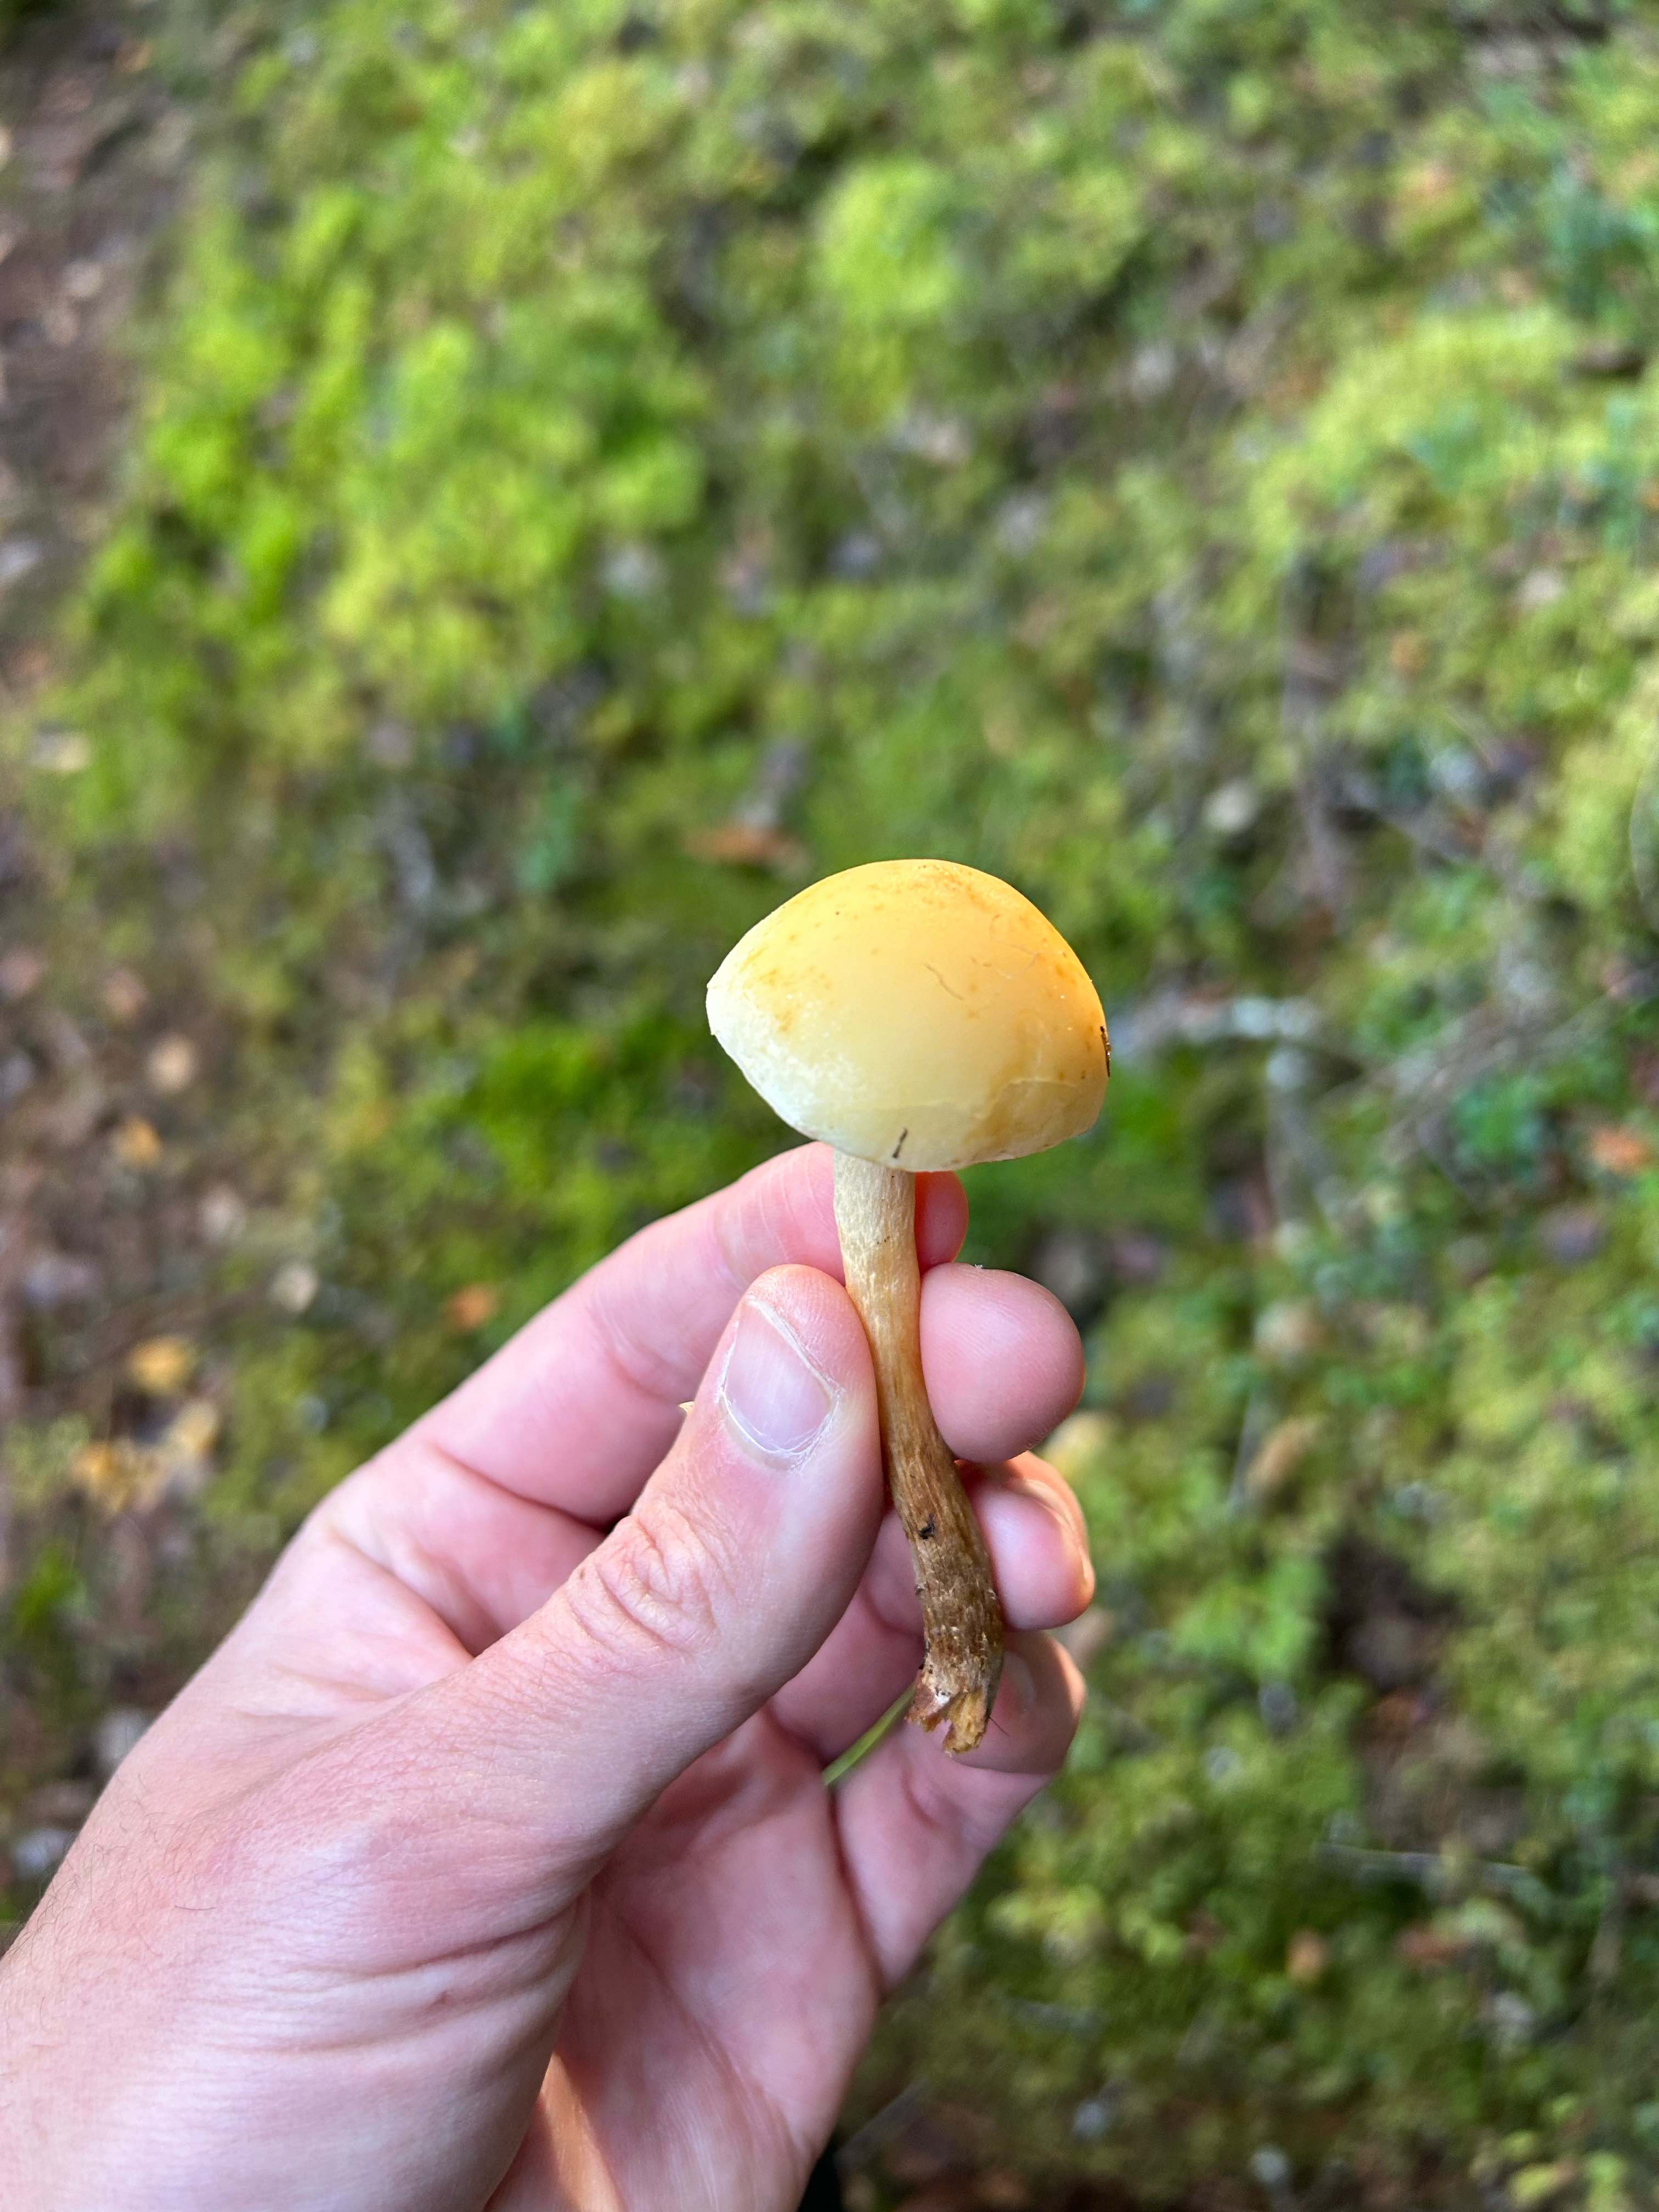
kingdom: Fungi
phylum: Basidiomycota
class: Agaricomycetes
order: Agaricales
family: Strophariaceae
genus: Hypholoma
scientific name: Hypholoma
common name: svovlhat
